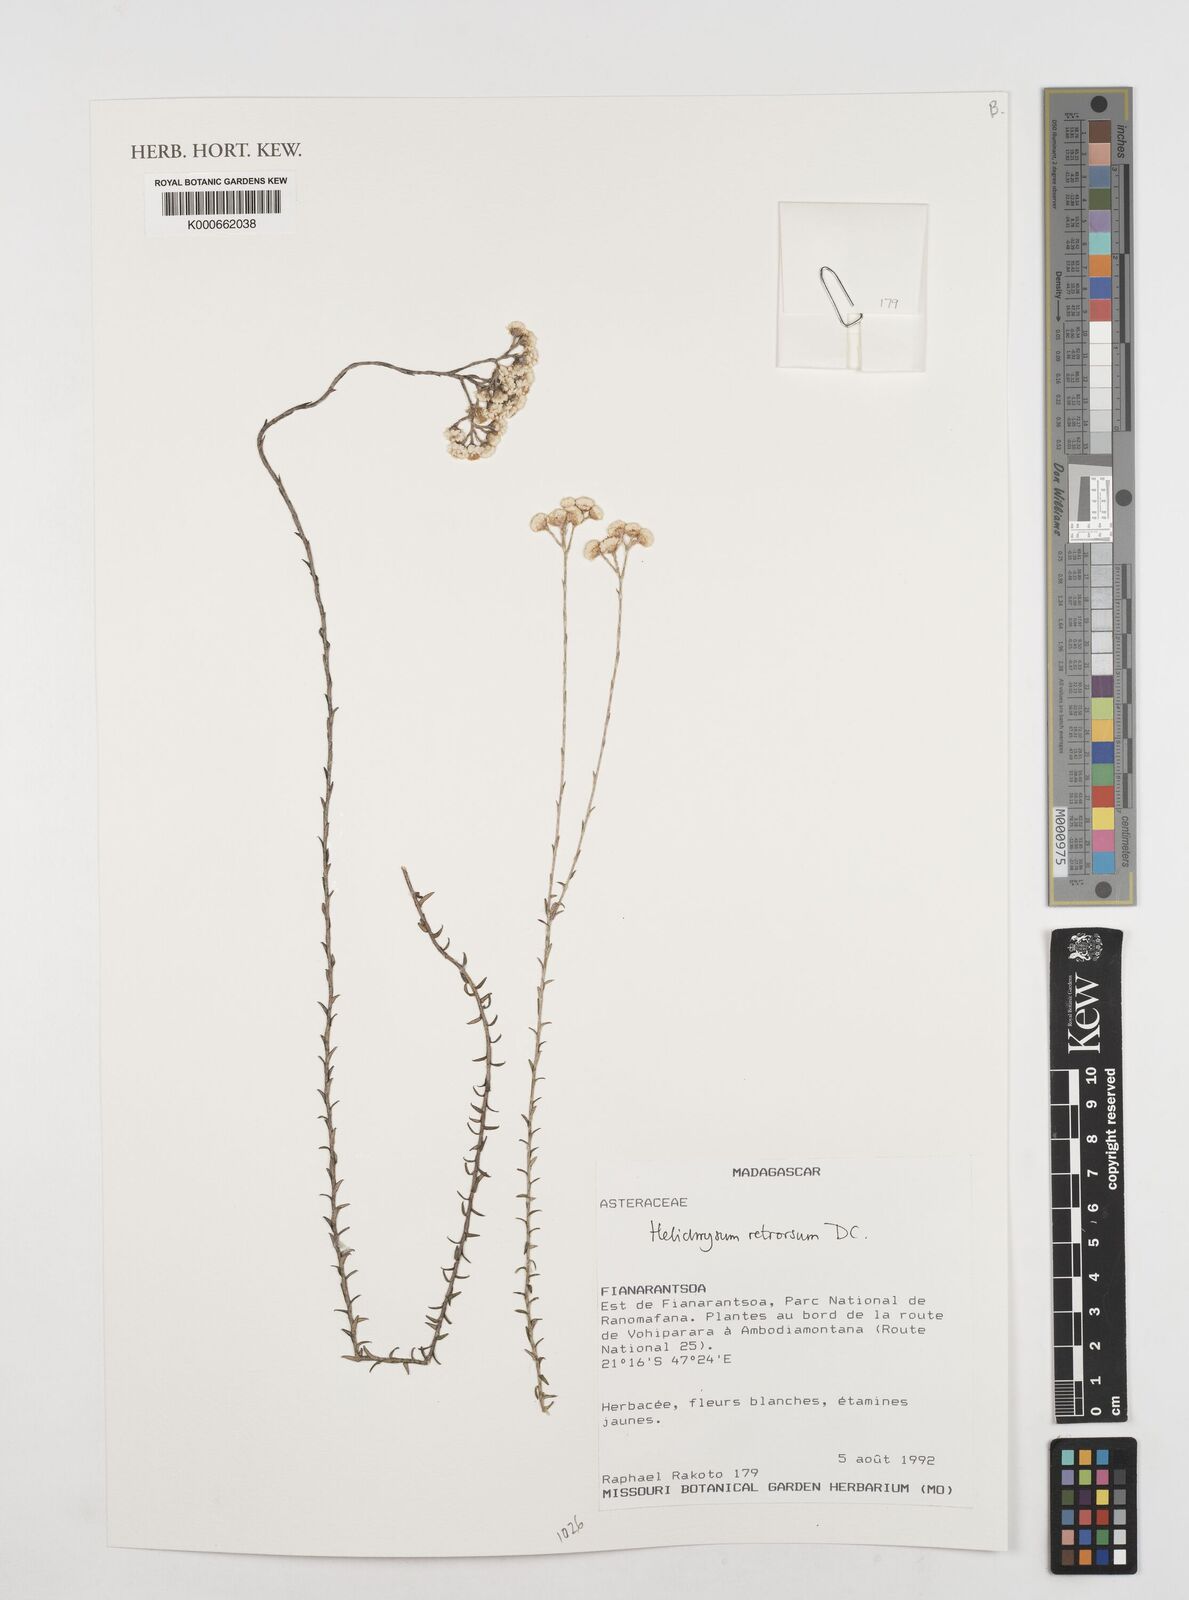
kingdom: Plantae
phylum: Tracheophyta
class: Magnoliopsida
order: Asterales
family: Asteraceae
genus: Helichrysum
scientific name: Helichrysum retrorsum
